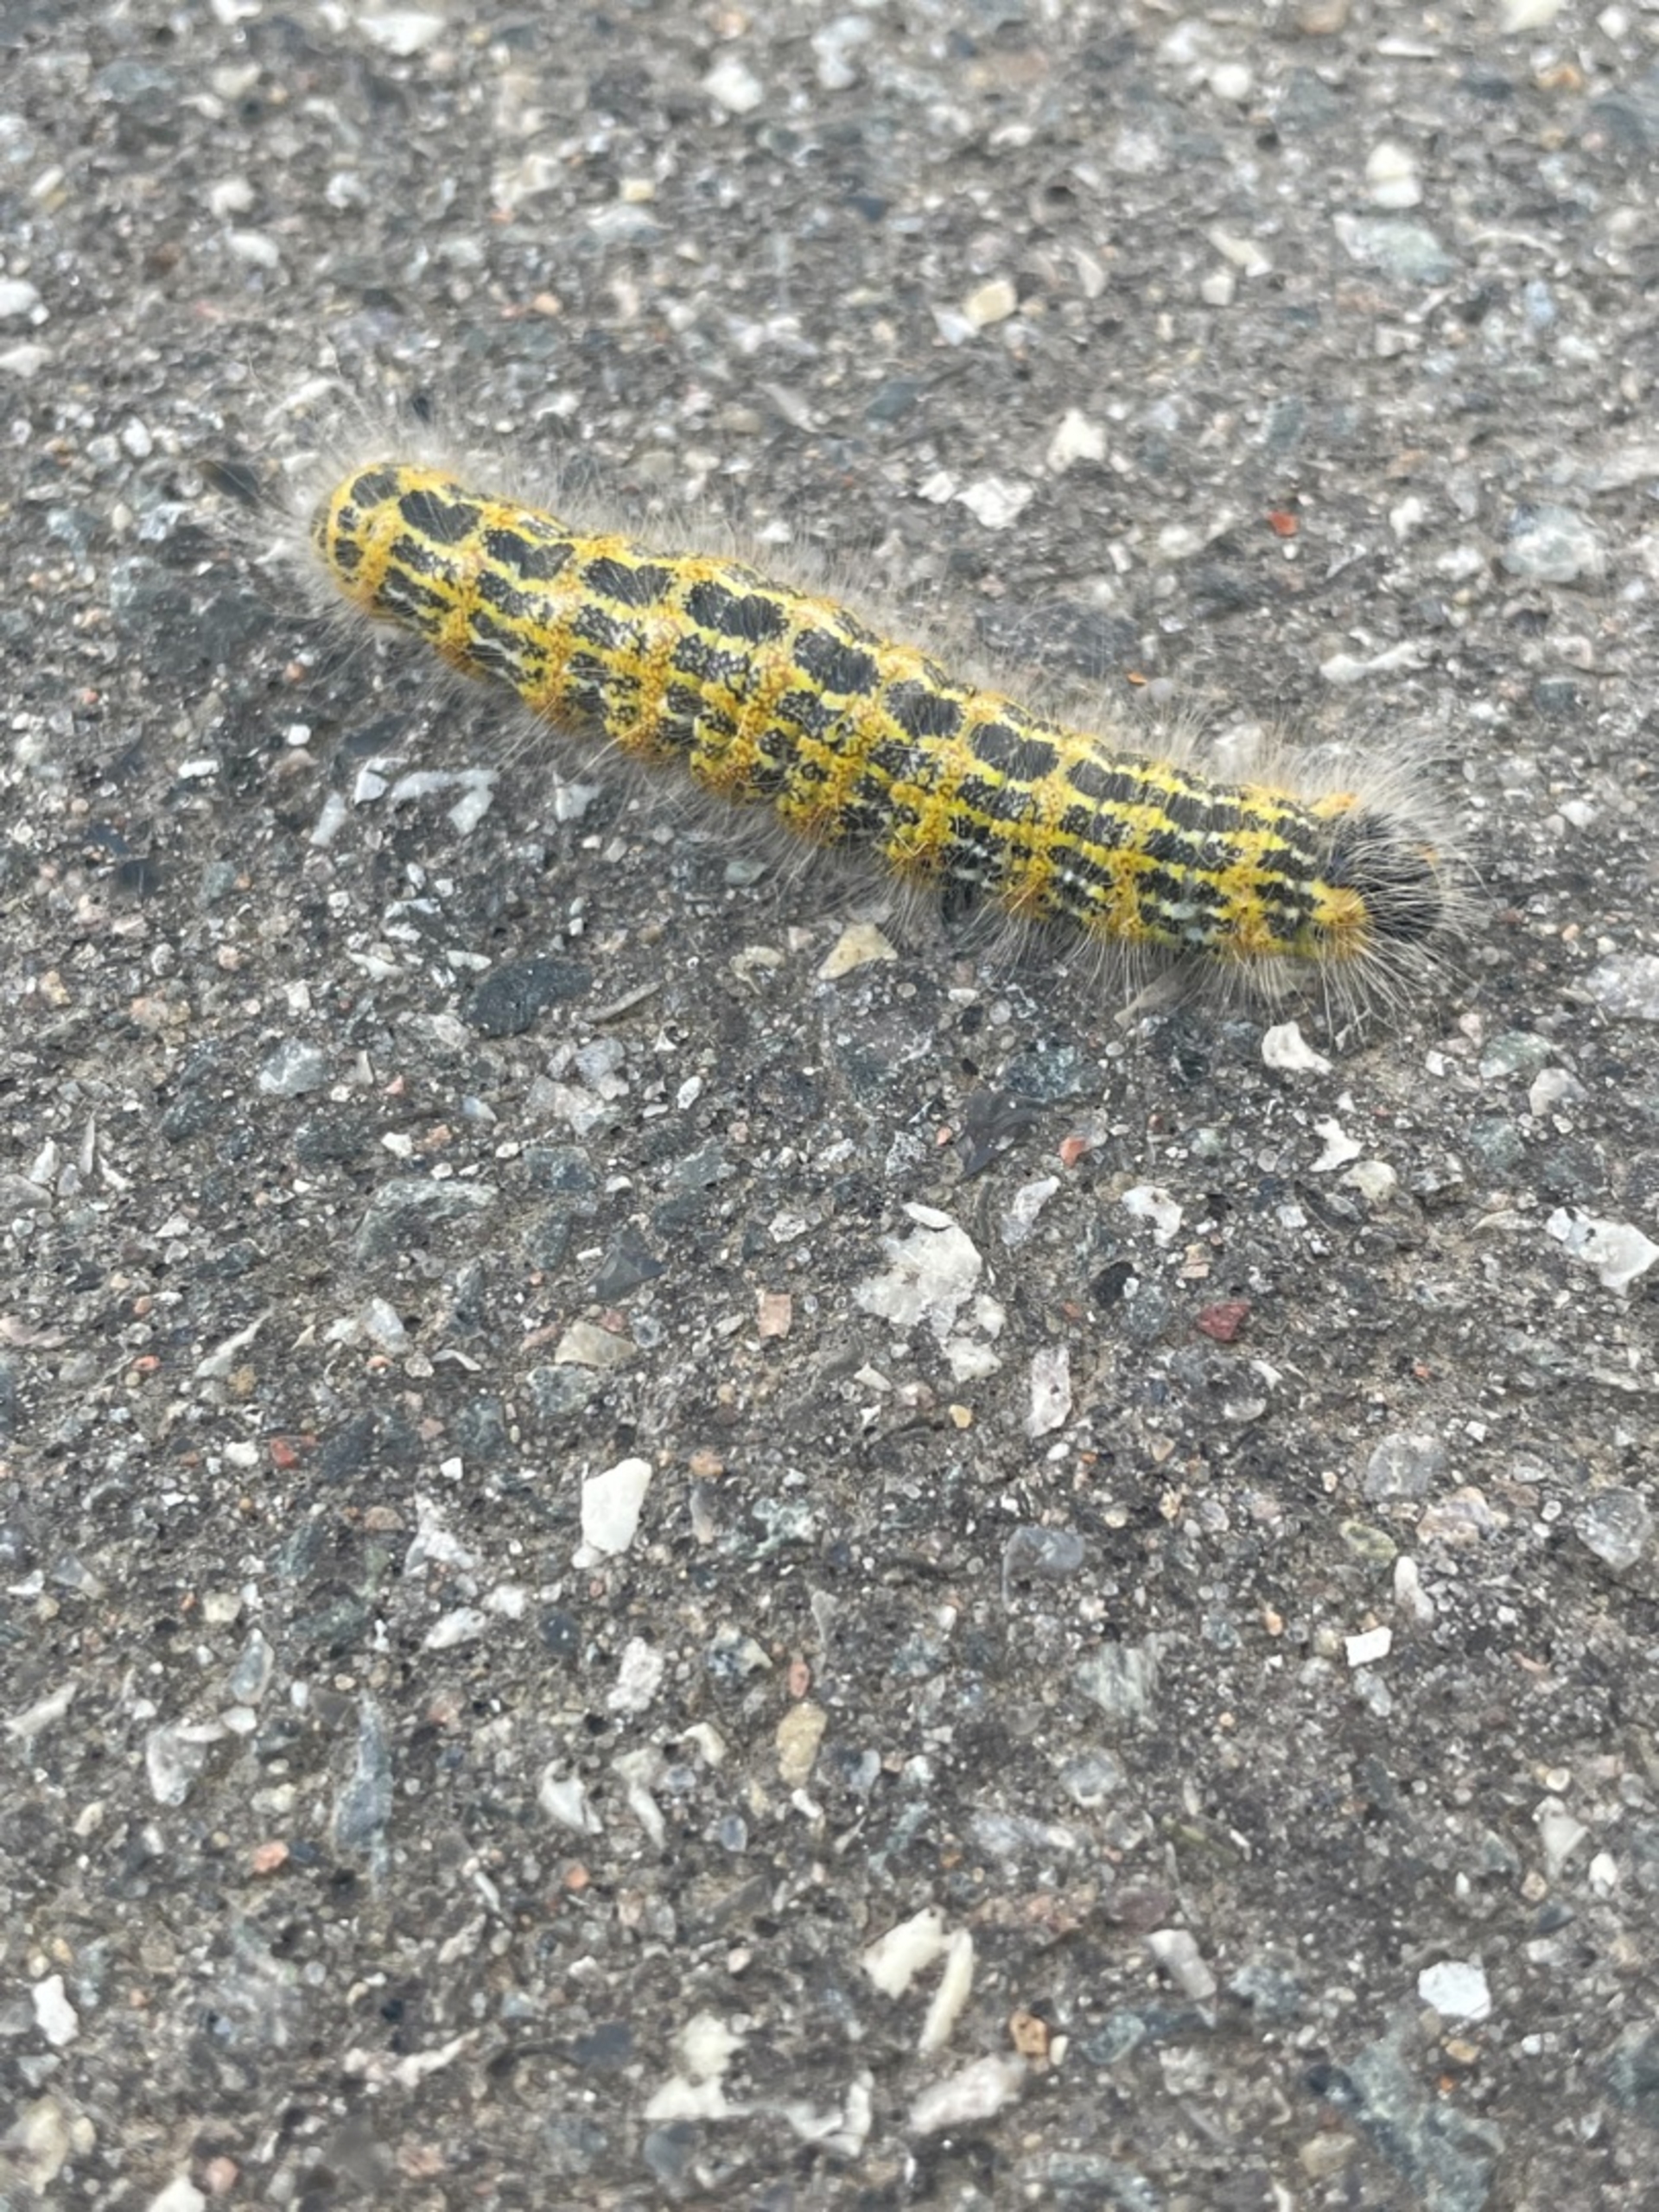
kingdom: Animalia
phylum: Arthropoda
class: Insecta
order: Lepidoptera
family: Notodontidae
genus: Phalera
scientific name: Phalera bucephala
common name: Måneplet
